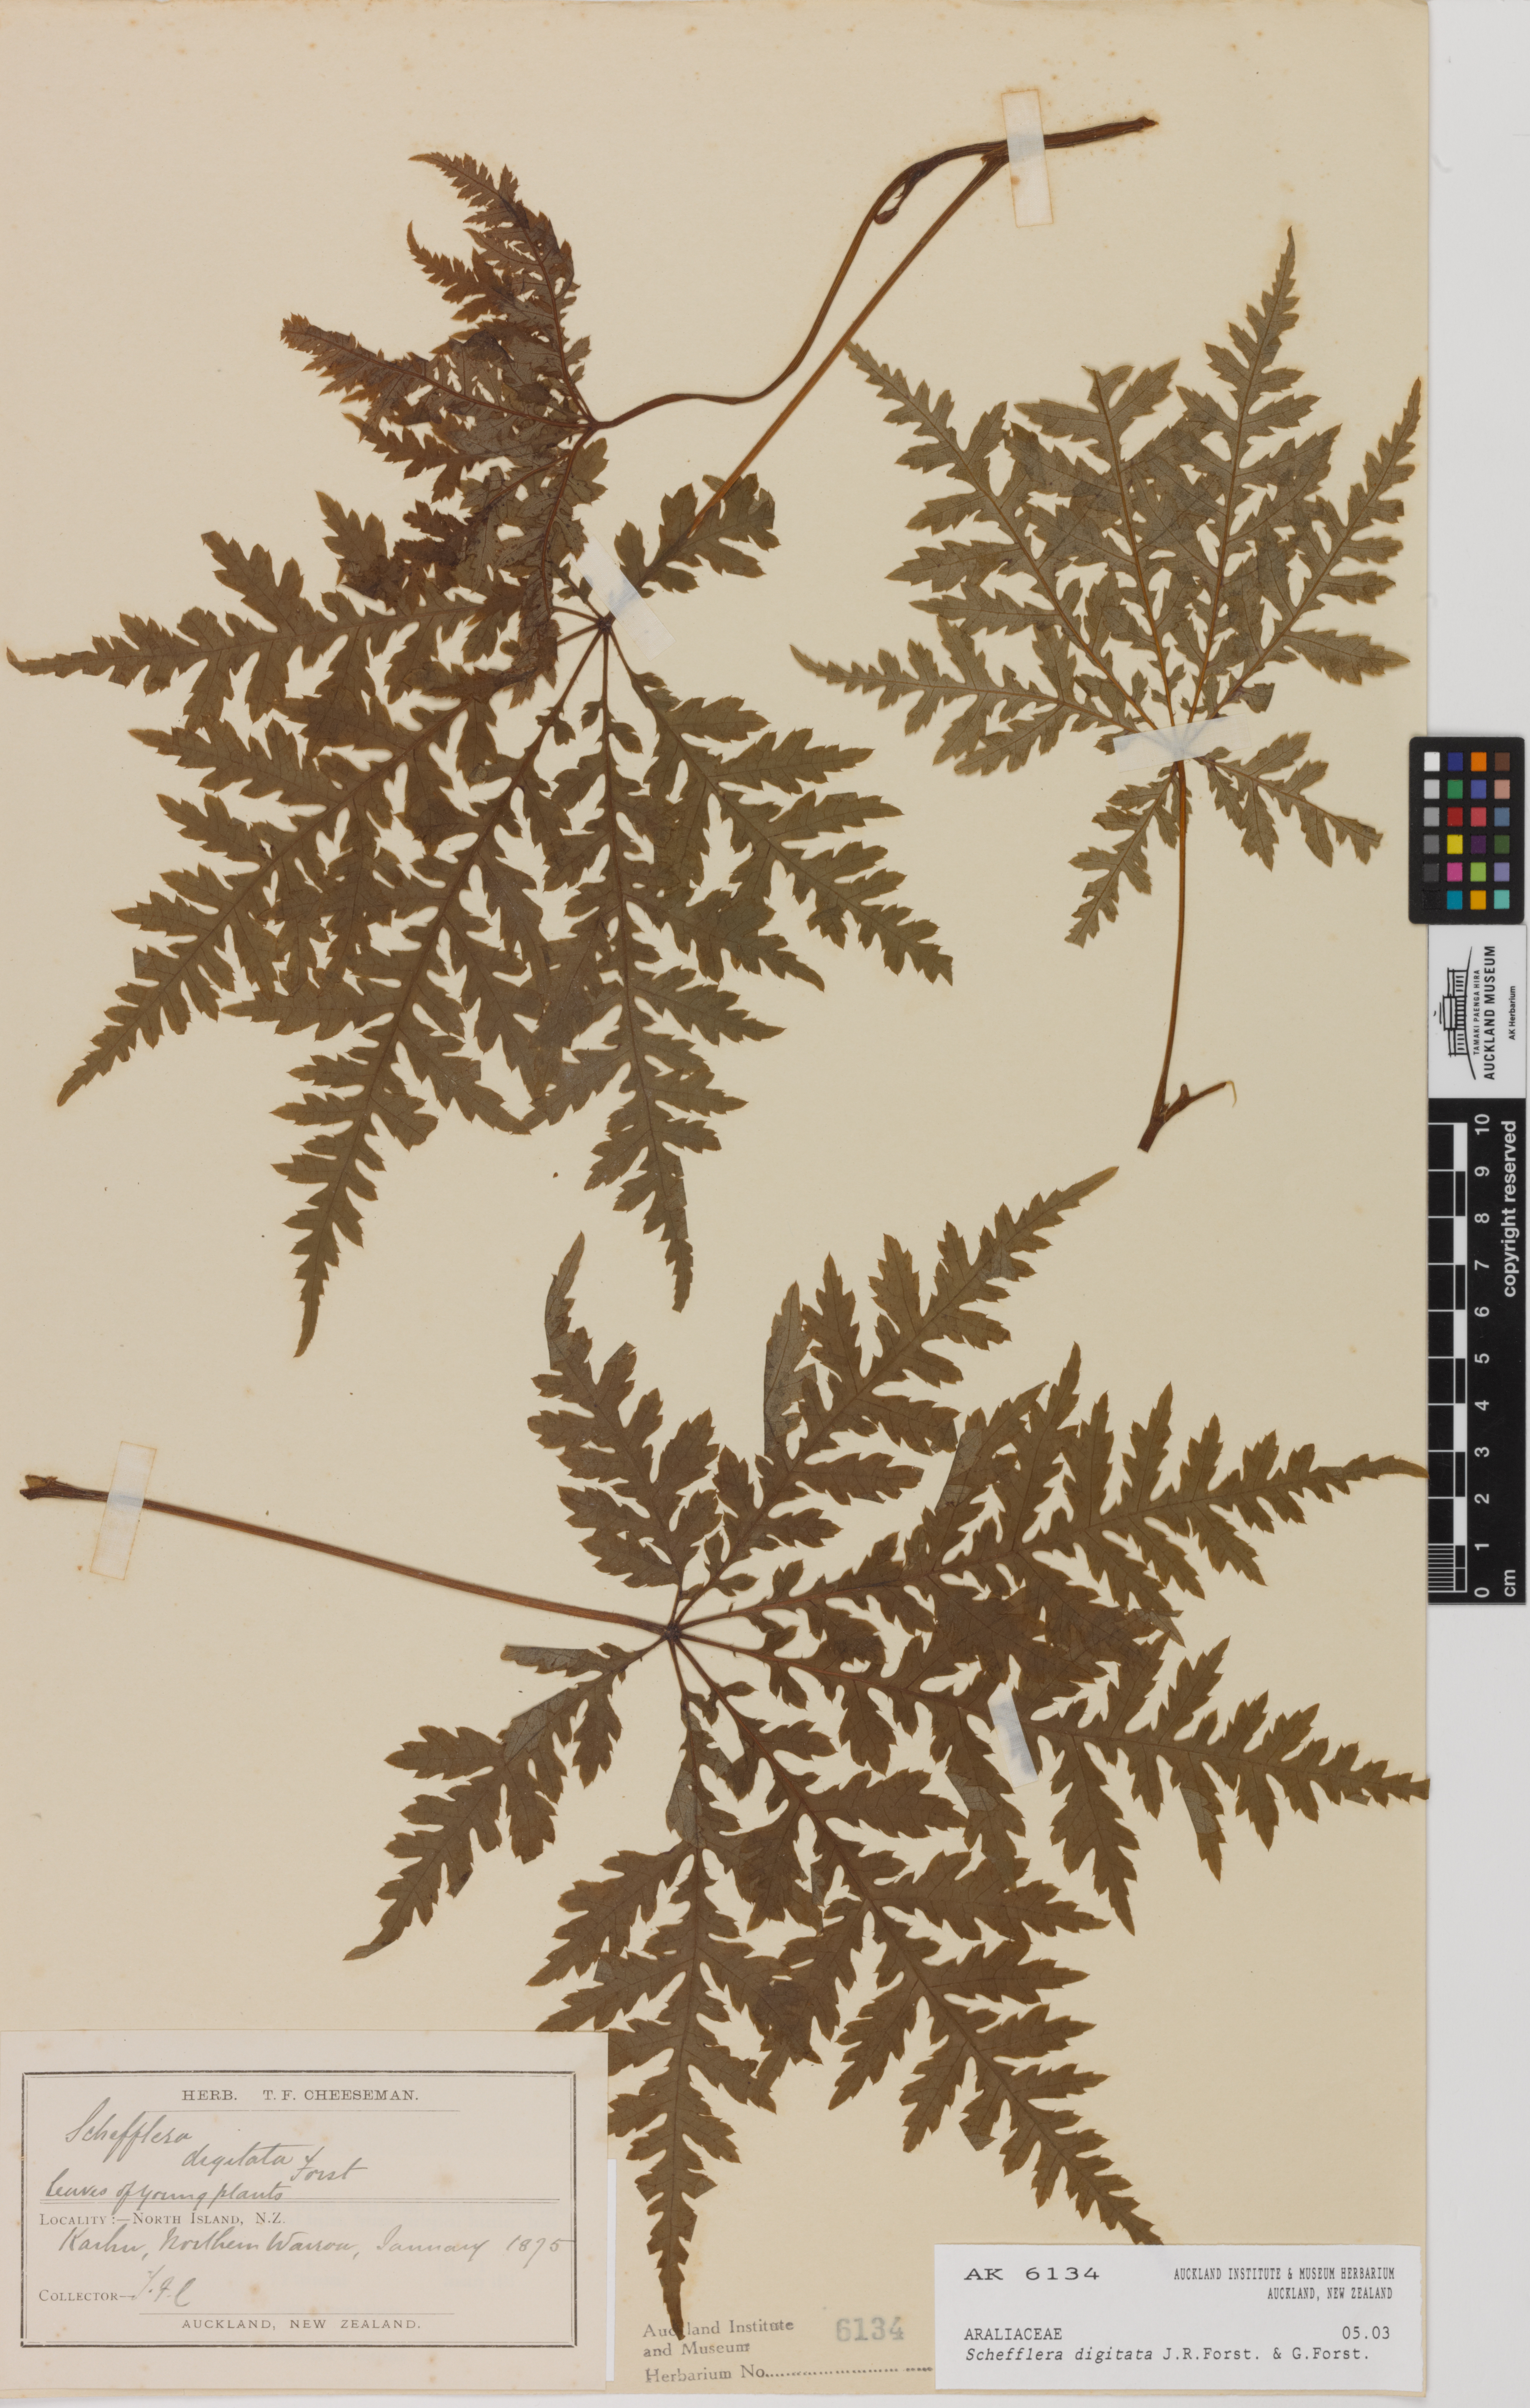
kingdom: Plantae
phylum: Tracheophyta
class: Magnoliopsida
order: Apiales
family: Araliaceae
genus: Schefflera
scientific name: Schefflera digitata
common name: Pate
